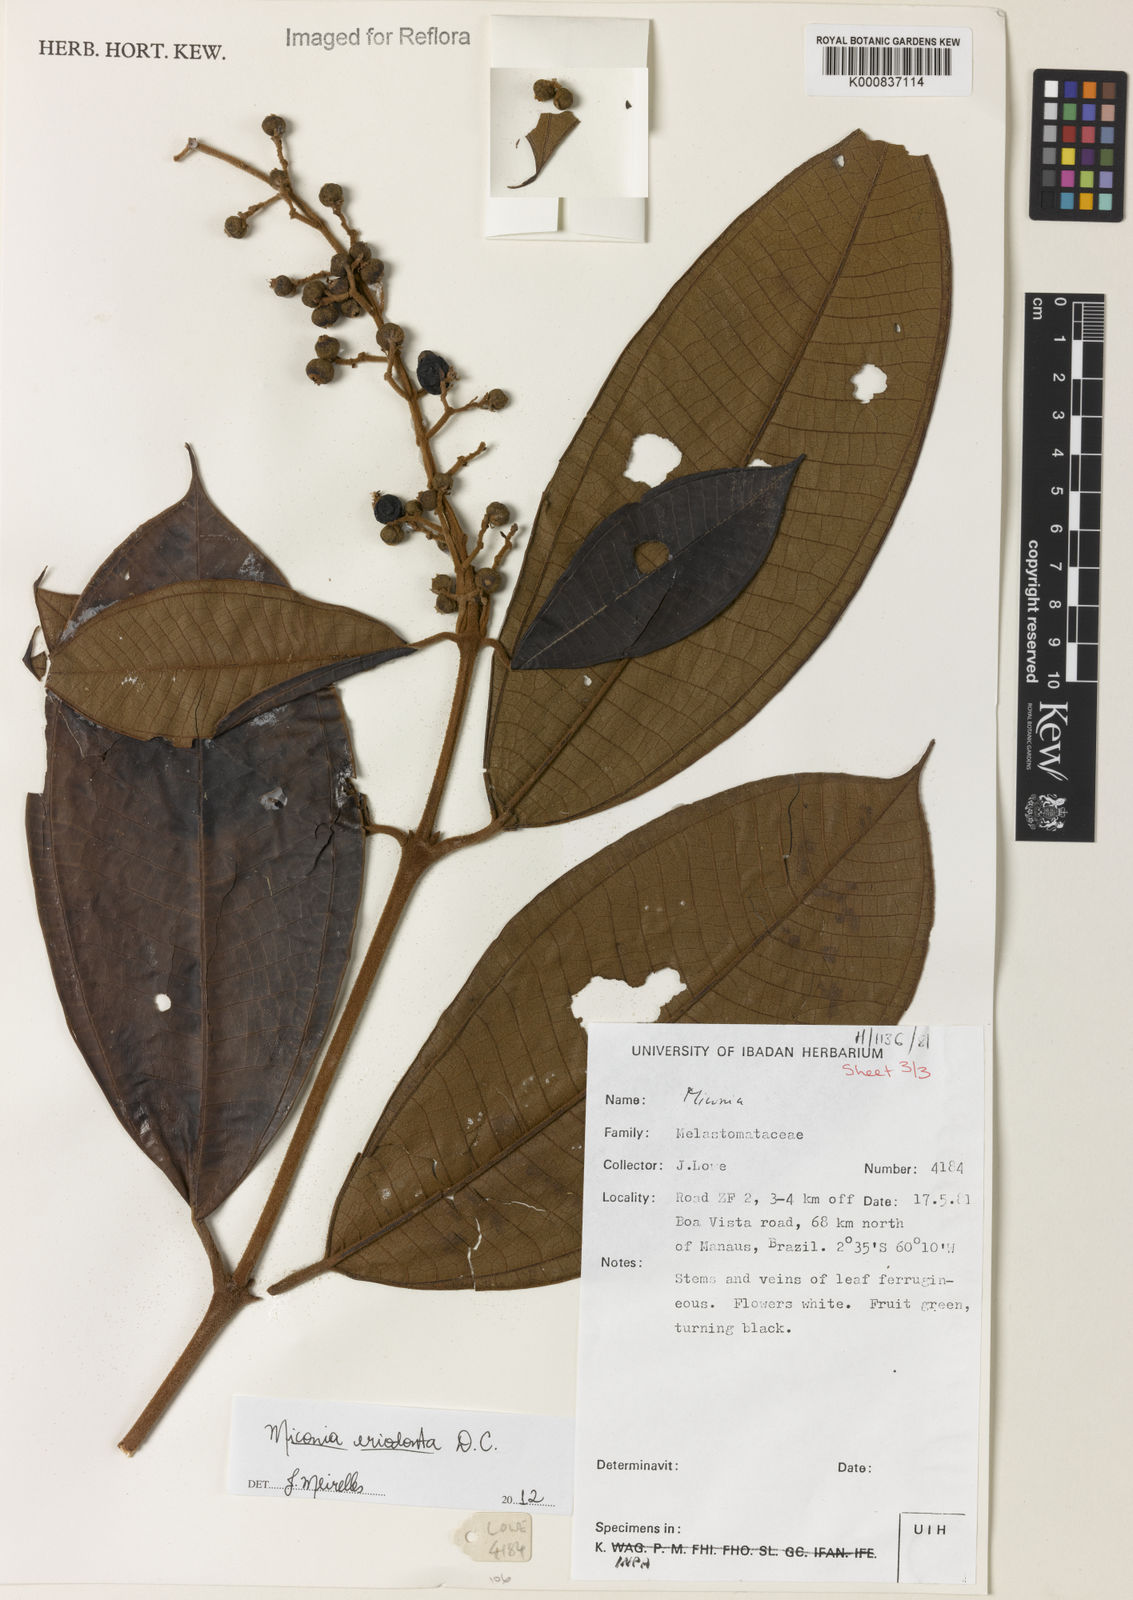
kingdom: Plantae
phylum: Tracheophyta
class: Magnoliopsida
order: Myrtales
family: Melastomataceae
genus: Miconia
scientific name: Miconia eriodonta
